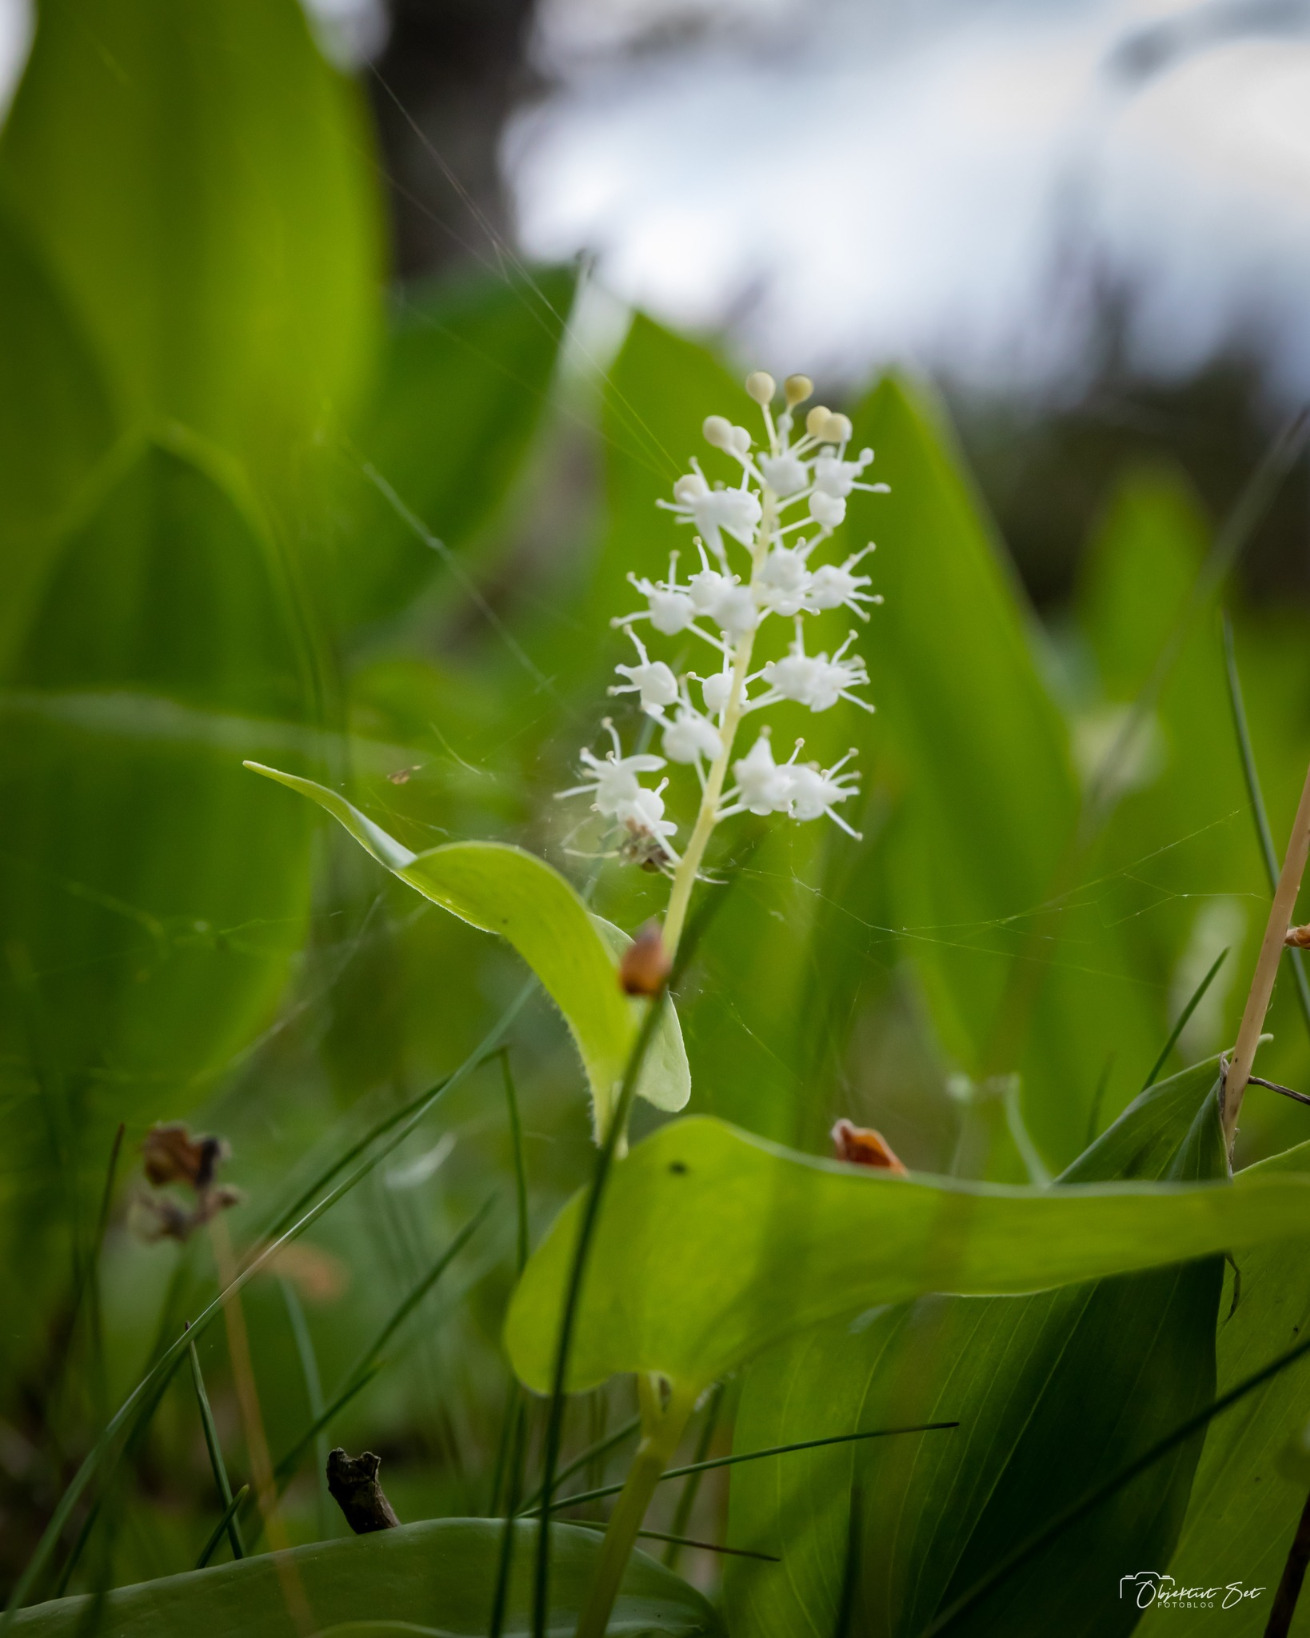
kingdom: Plantae
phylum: Tracheophyta
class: Liliopsida
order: Asparagales
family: Asparagaceae
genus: Maianthemum
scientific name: Maianthemum bifolium
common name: Majblomst
